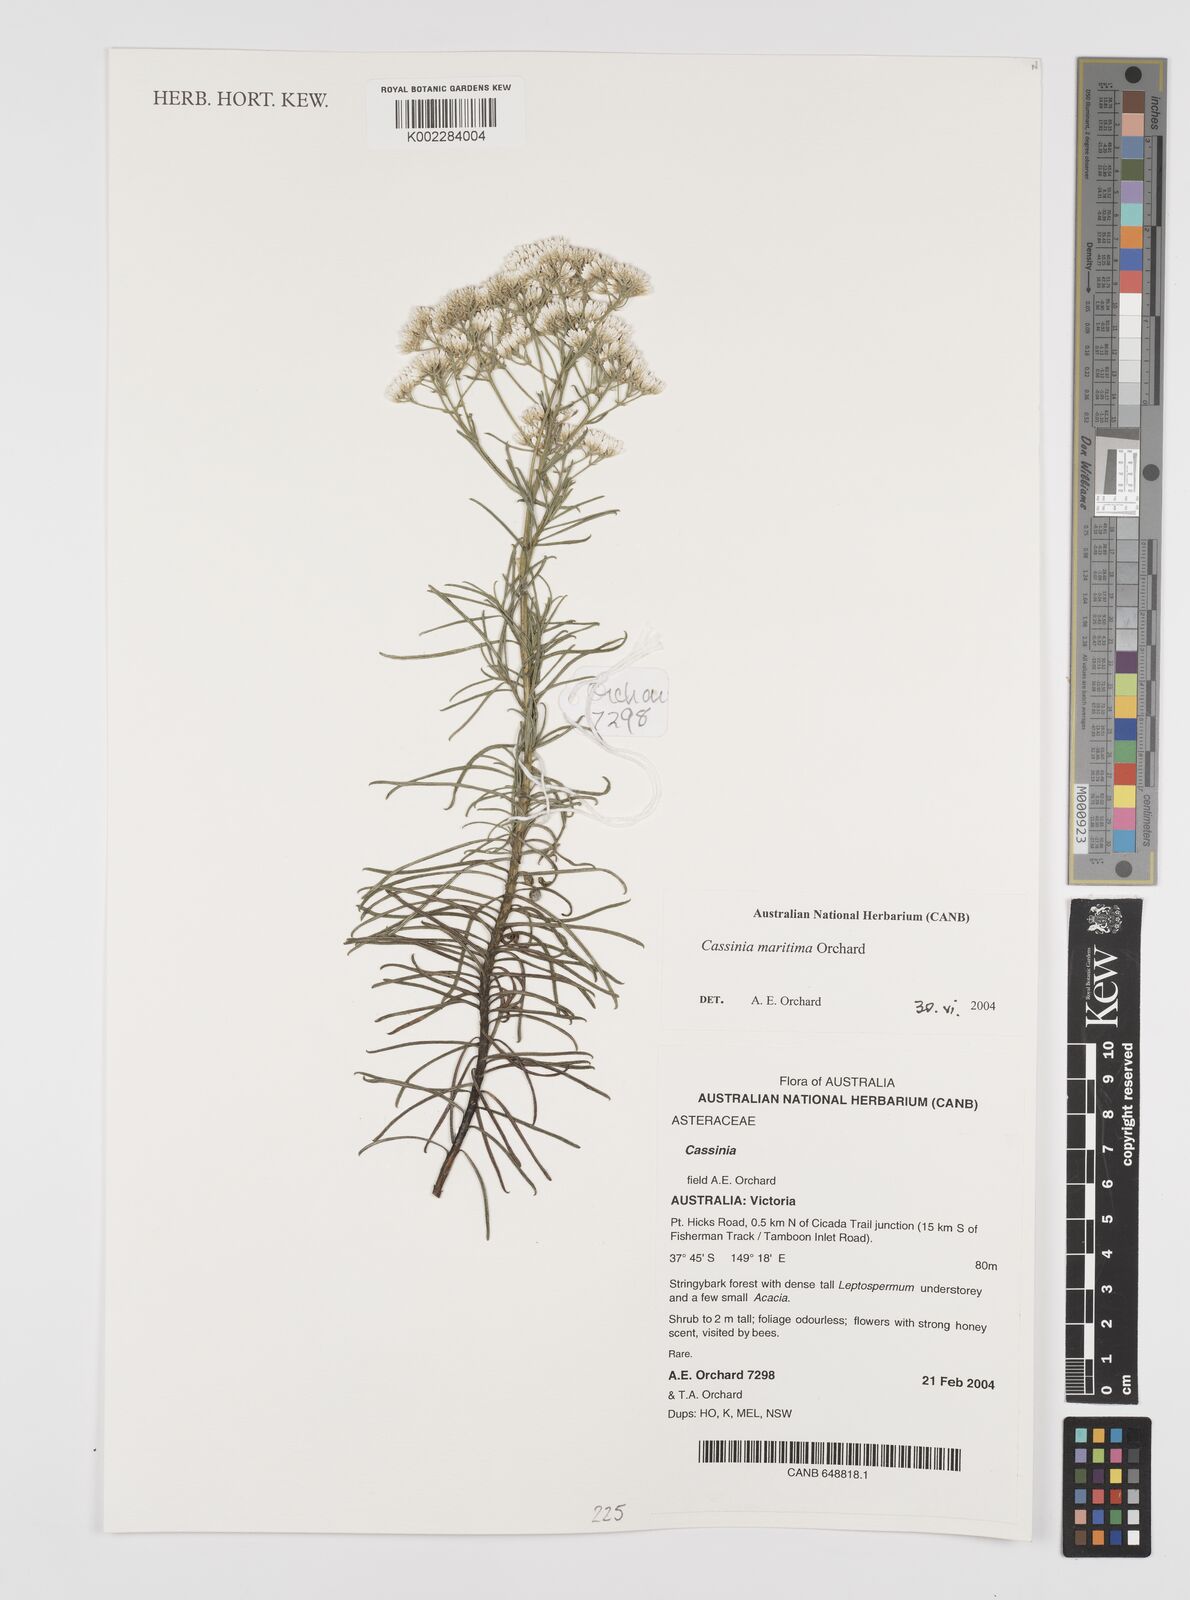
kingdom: Plantae
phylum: Tracheophyta
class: Magnoliopsida
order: Asterales
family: Asteraceae
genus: Cassinia
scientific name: Cassinia maritima
